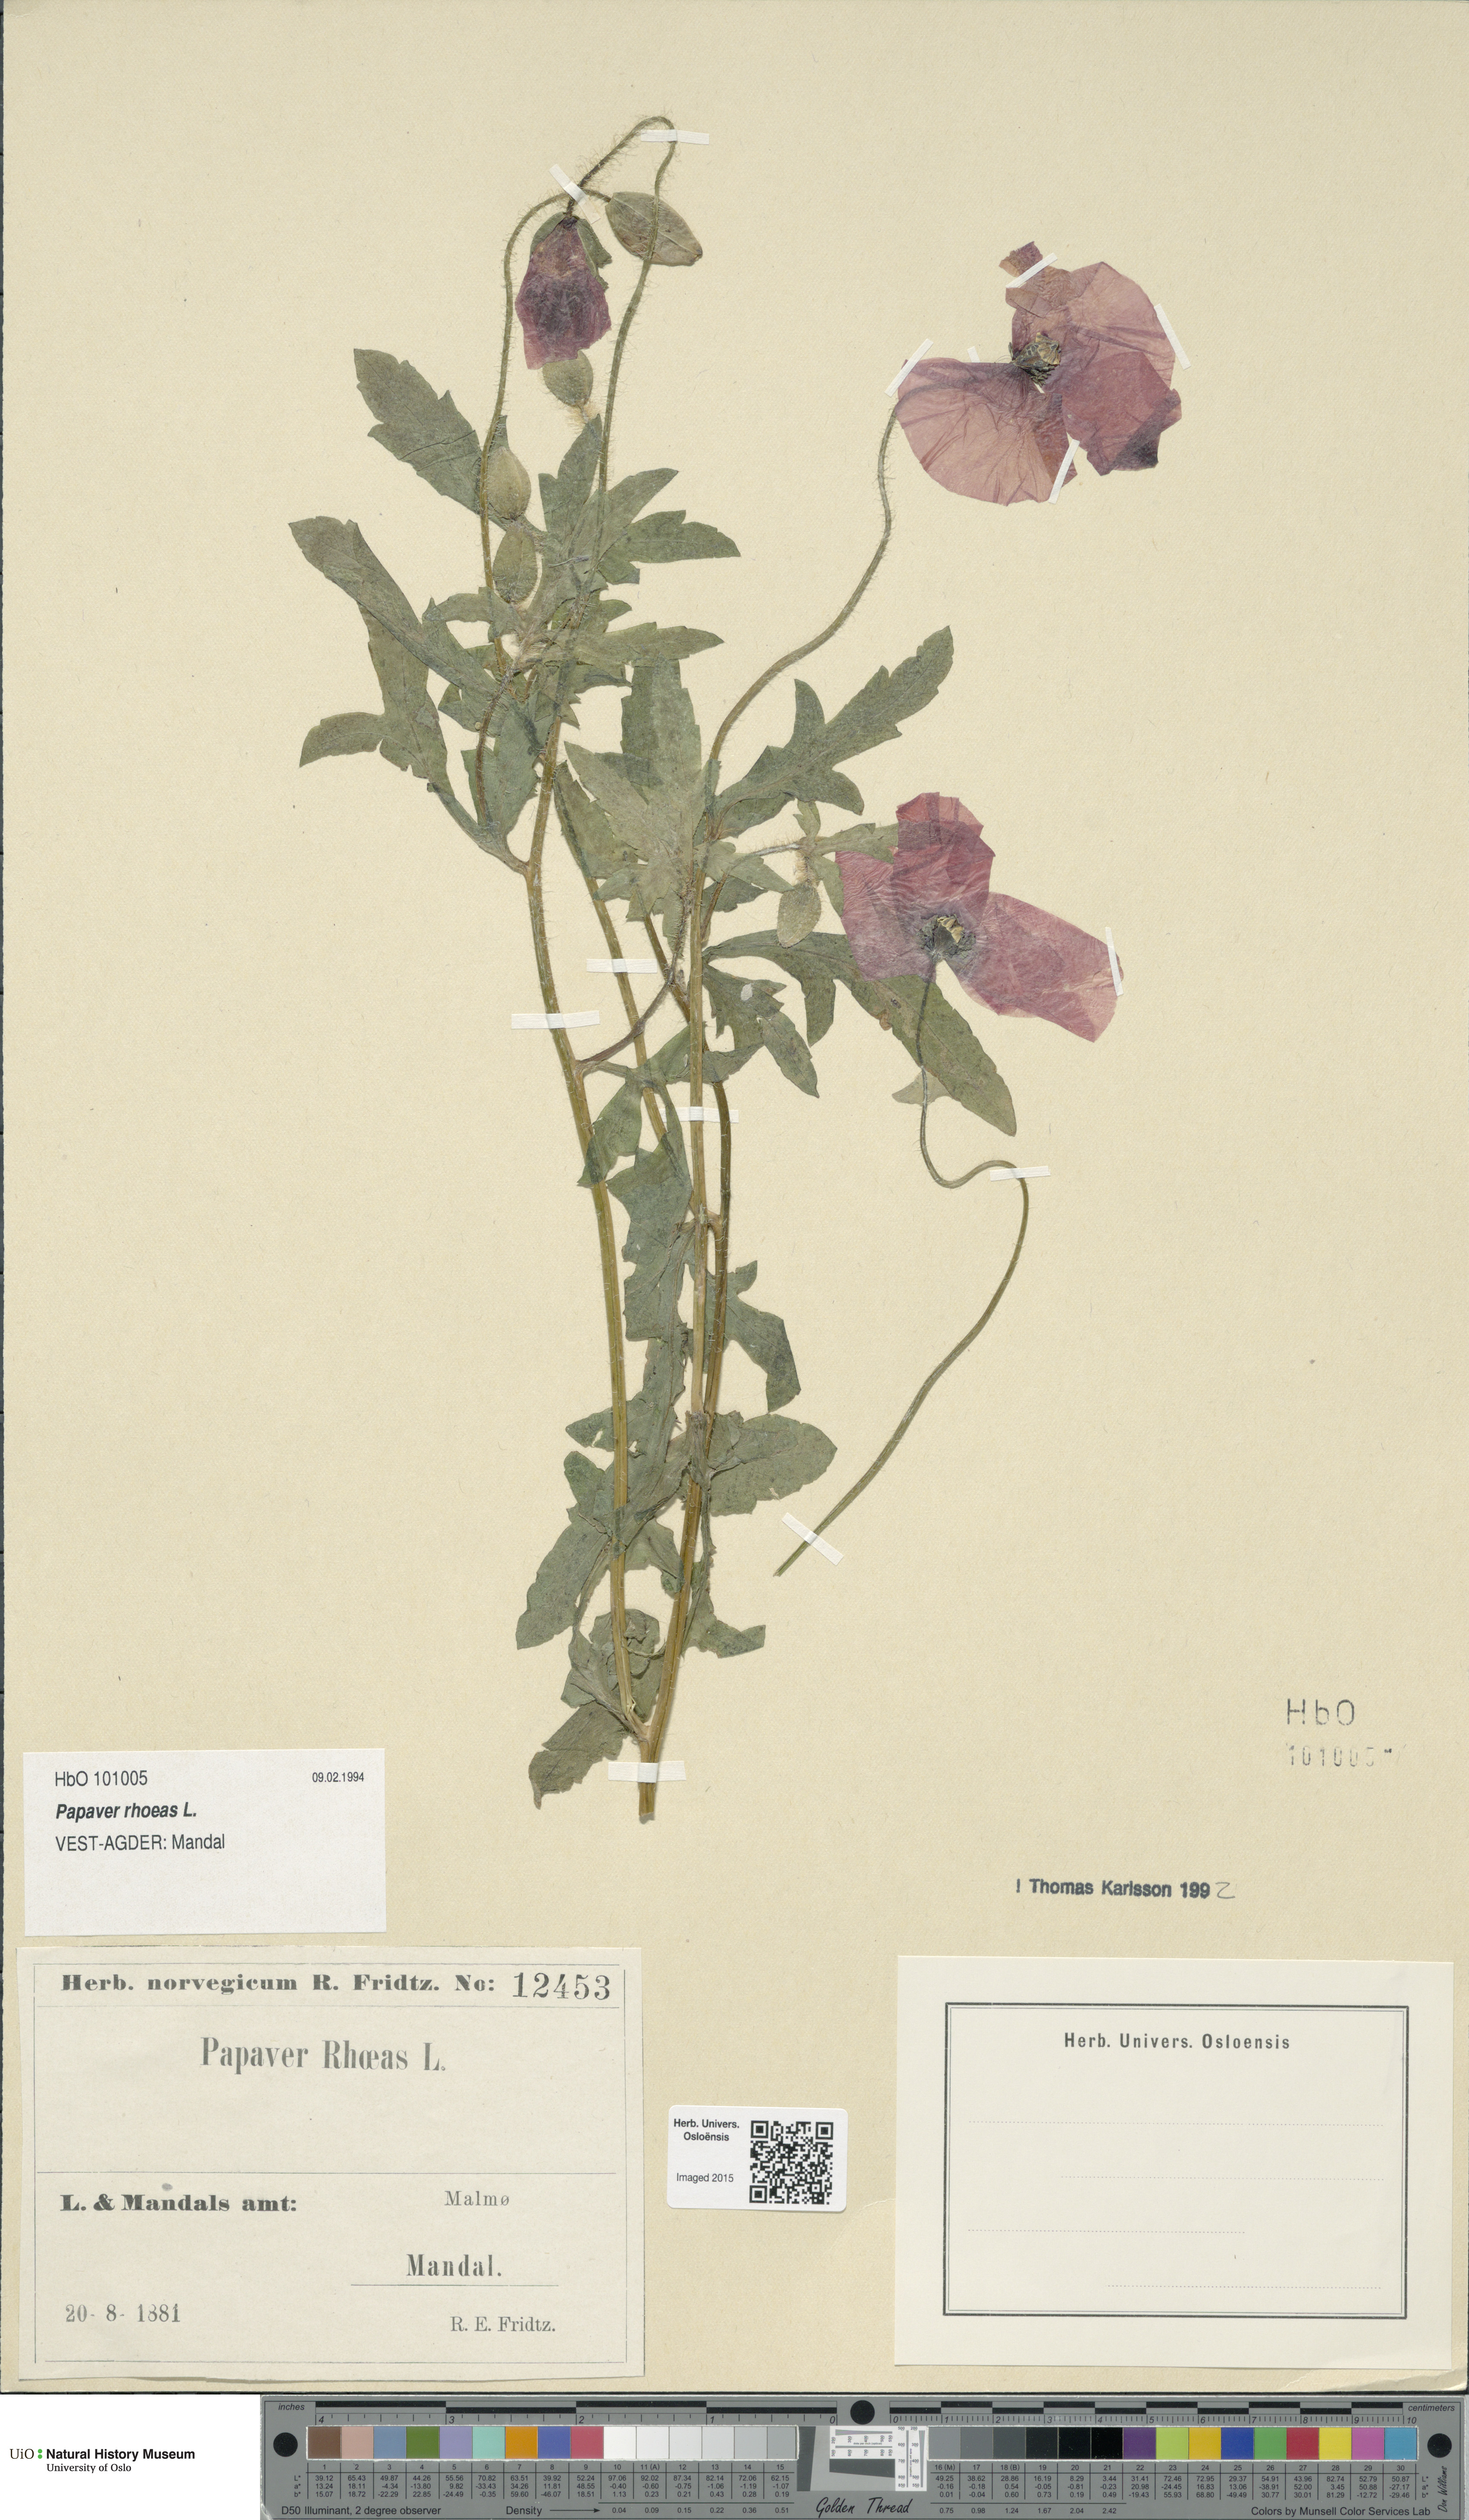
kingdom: Plantae
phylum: Tracheophyta
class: Magnoliopsida
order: Ranunculales
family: Papaveraceae
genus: Papaver
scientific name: Papaver rhoeas
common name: Corn poppy
